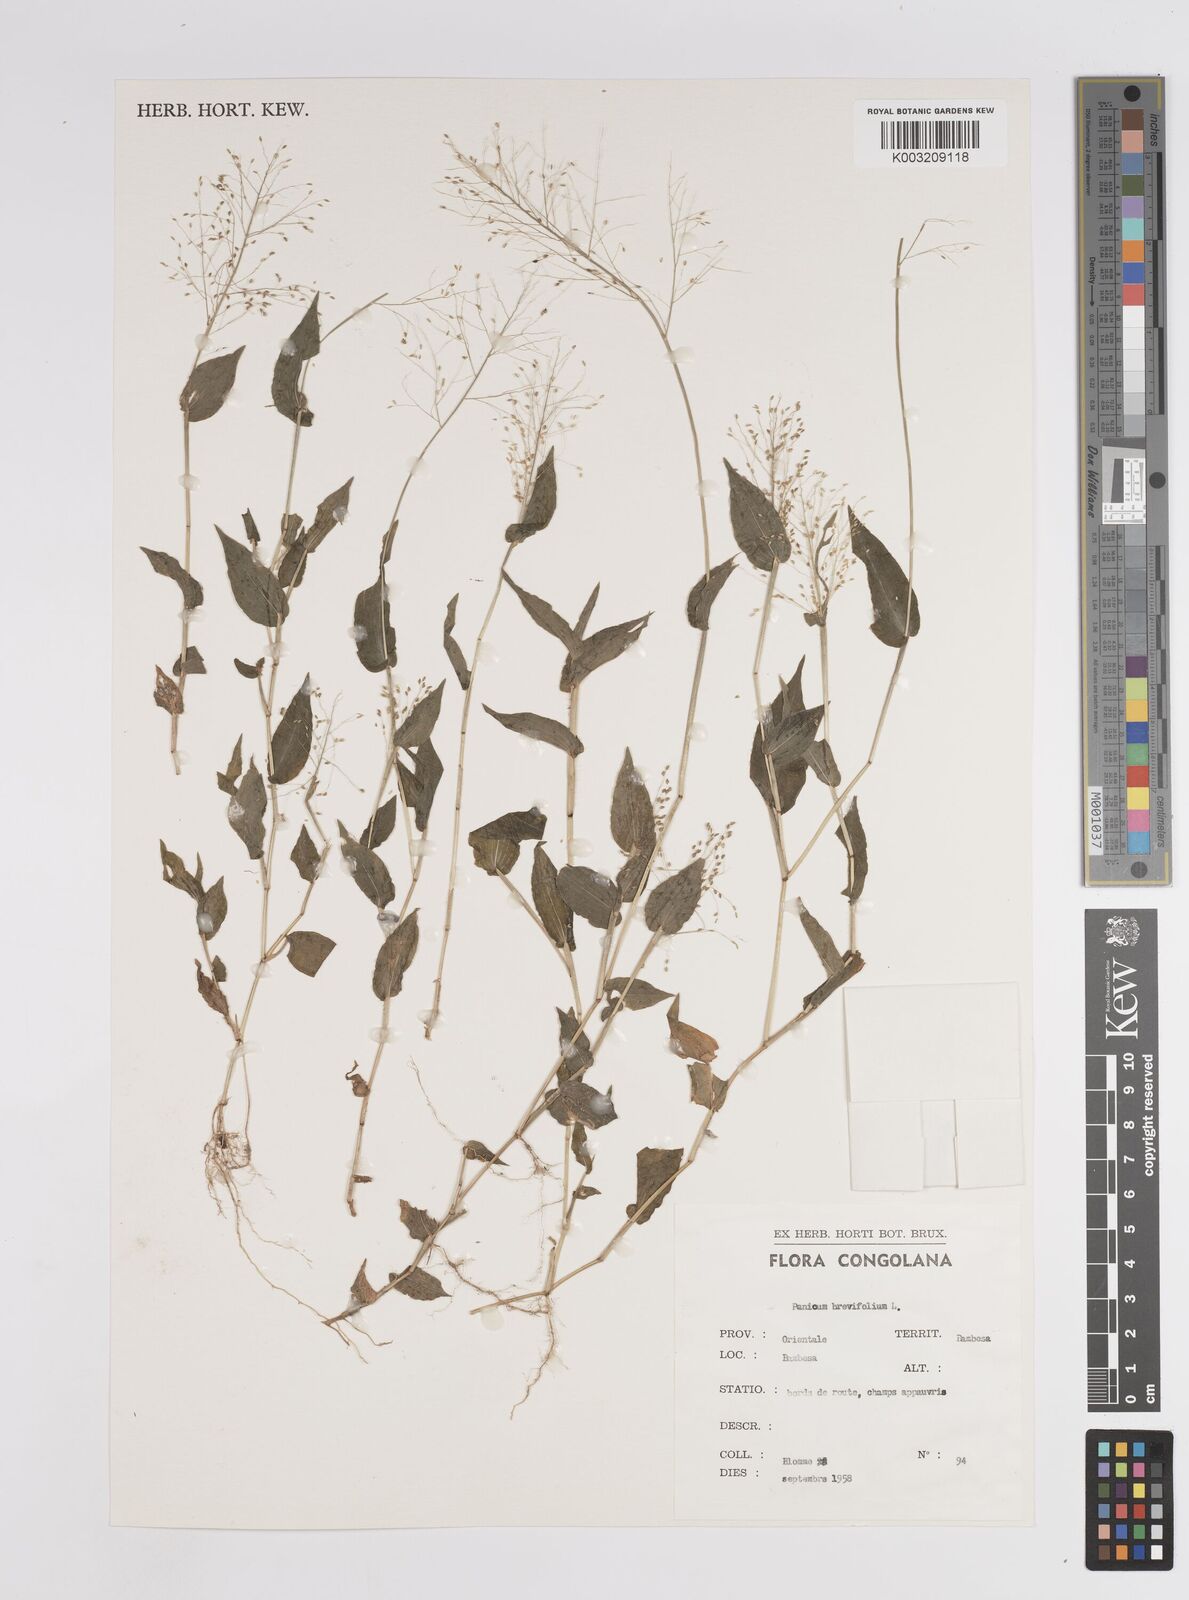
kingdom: Plantae
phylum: Tracheophyta
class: Liliopsida
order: Poales
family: Poaceae
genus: Panicum
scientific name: Panicum brevifolium
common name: Shortleaf panic grass
